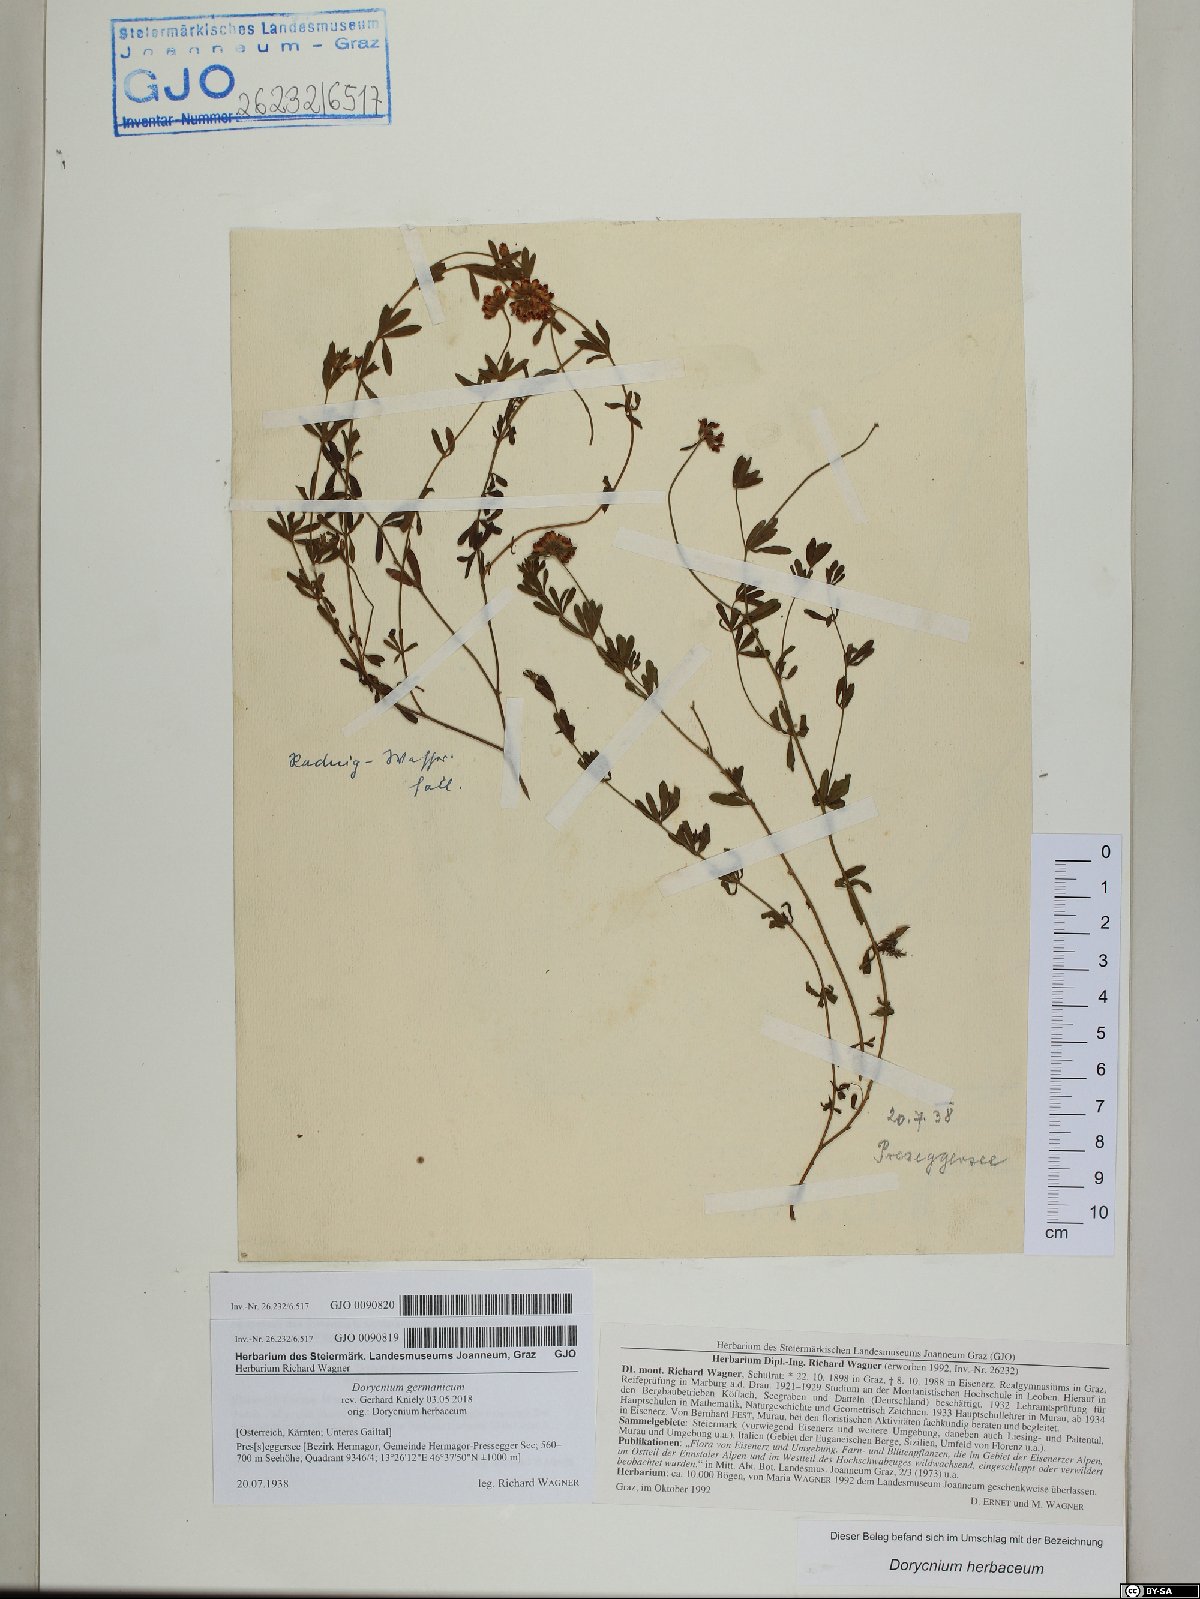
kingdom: Plantae
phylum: Tracheophyta
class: Magnoliopsida
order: Fabales
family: Fabaceae
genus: Lotus
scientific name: Lotus germanicus
